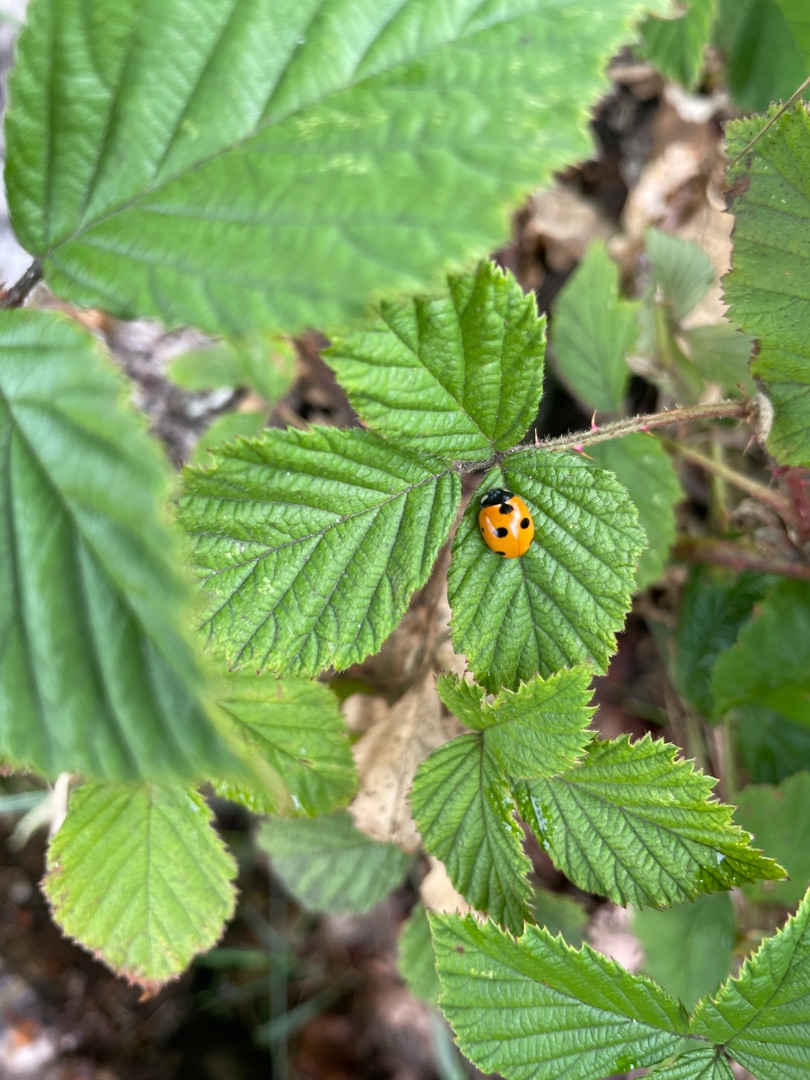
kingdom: Animalia
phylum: Arthropoda
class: Insecta
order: Coleoptera
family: Coccinellidae
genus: Coccinella
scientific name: Coccinella magnifica
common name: Myremariehøne
